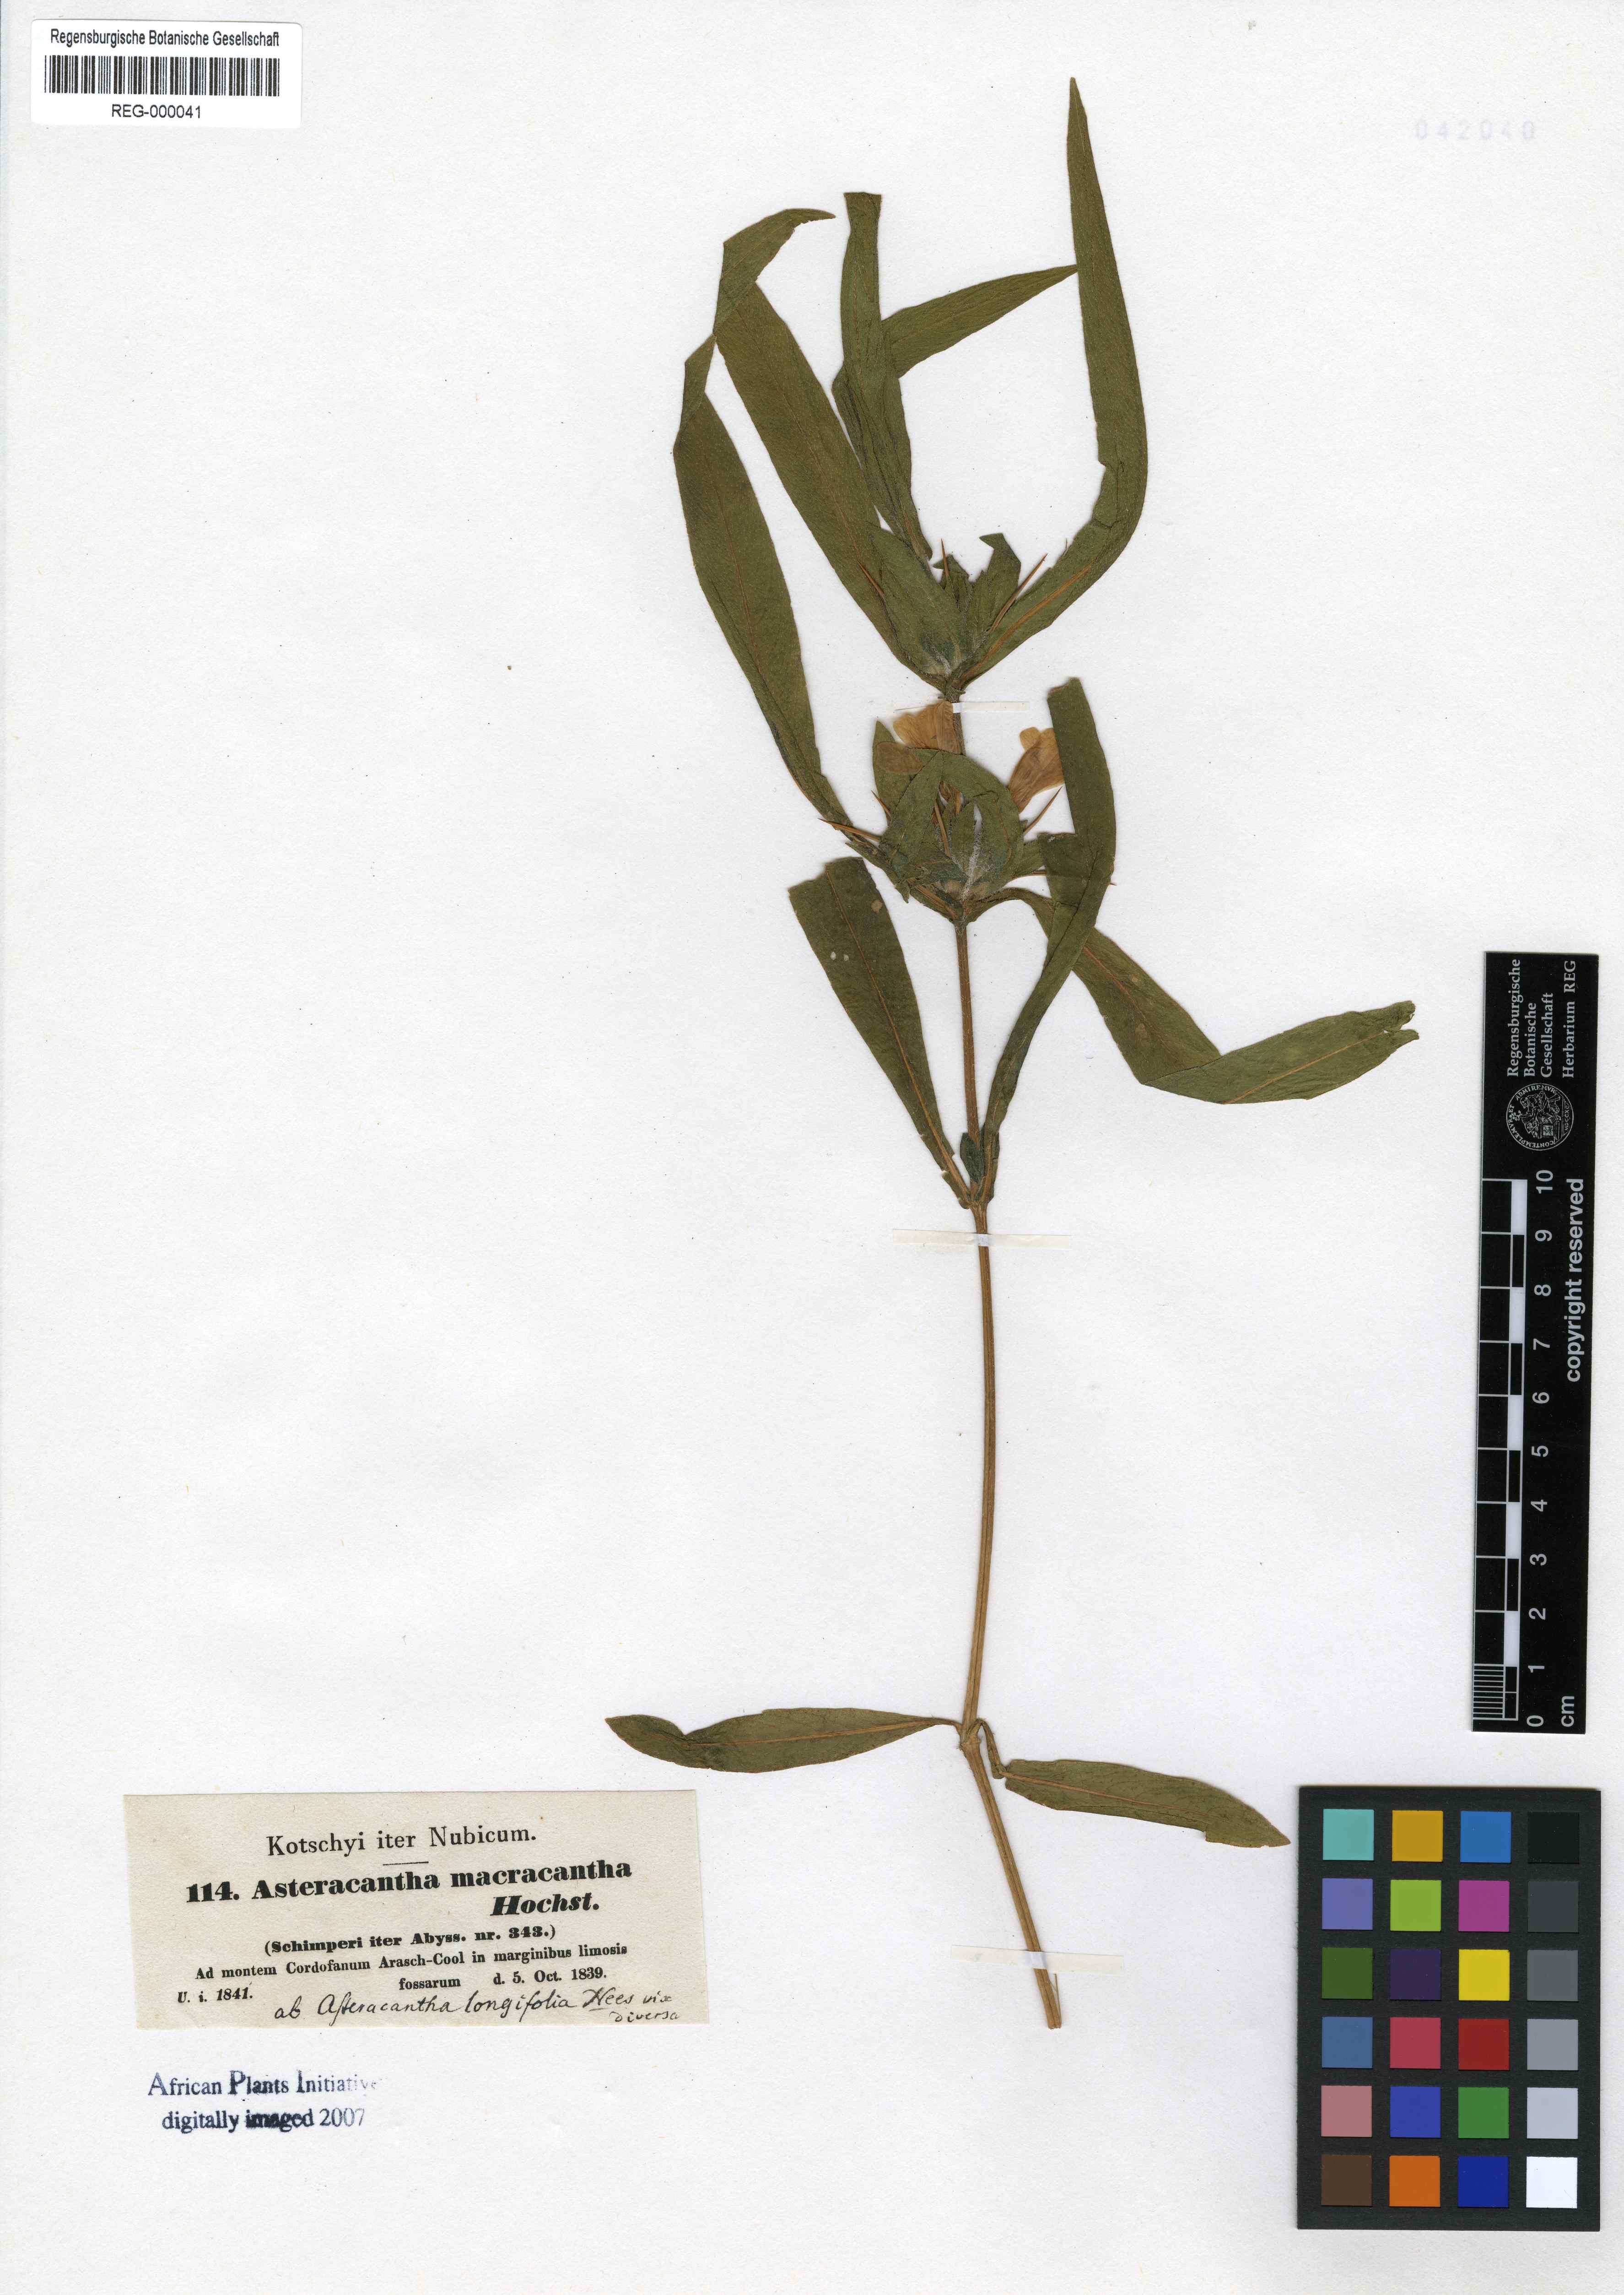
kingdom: Plantae
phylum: Tracheophyta
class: Magnoliopsida
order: Lamiales
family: Acanthaceae
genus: Hygrophila
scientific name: Hygrophila auriculata
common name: Hygrophila
